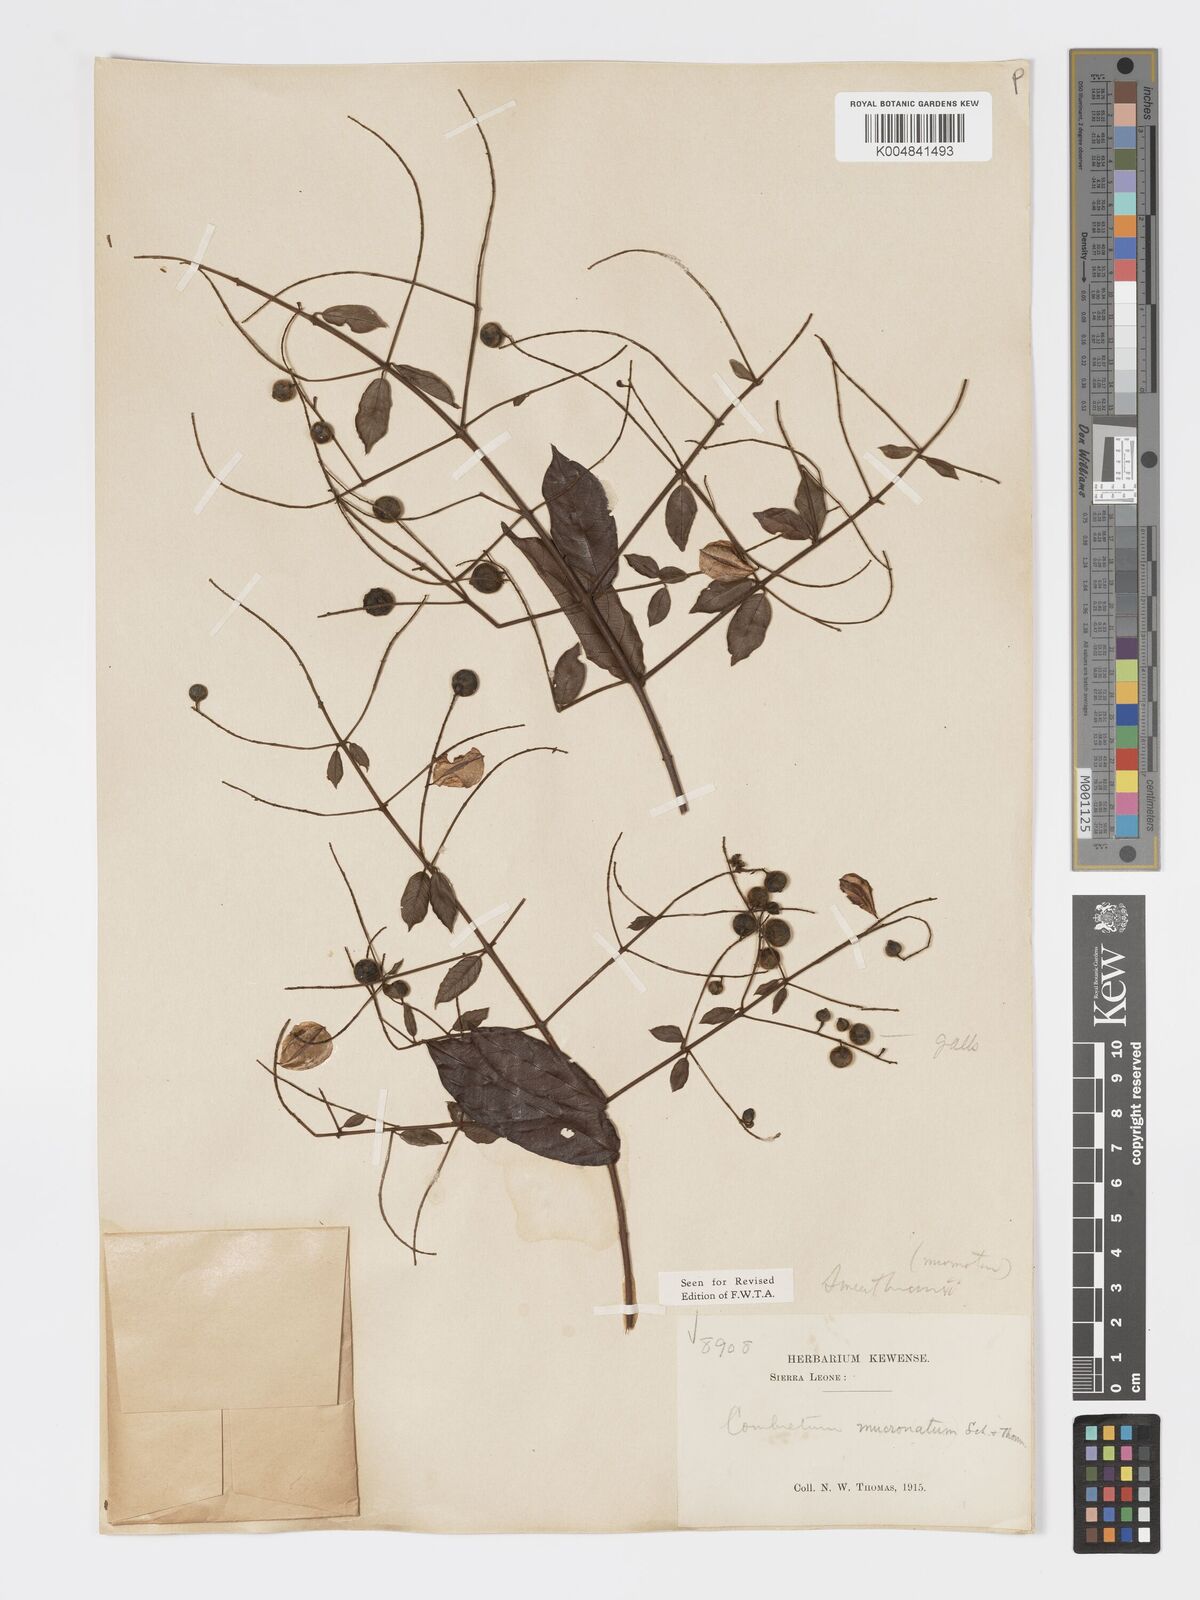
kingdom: Plantae
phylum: Tracheophyta
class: Magnoliopsida
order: Myrtales
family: Combretaceae
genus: Combretum
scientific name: Combretum mucronatum
